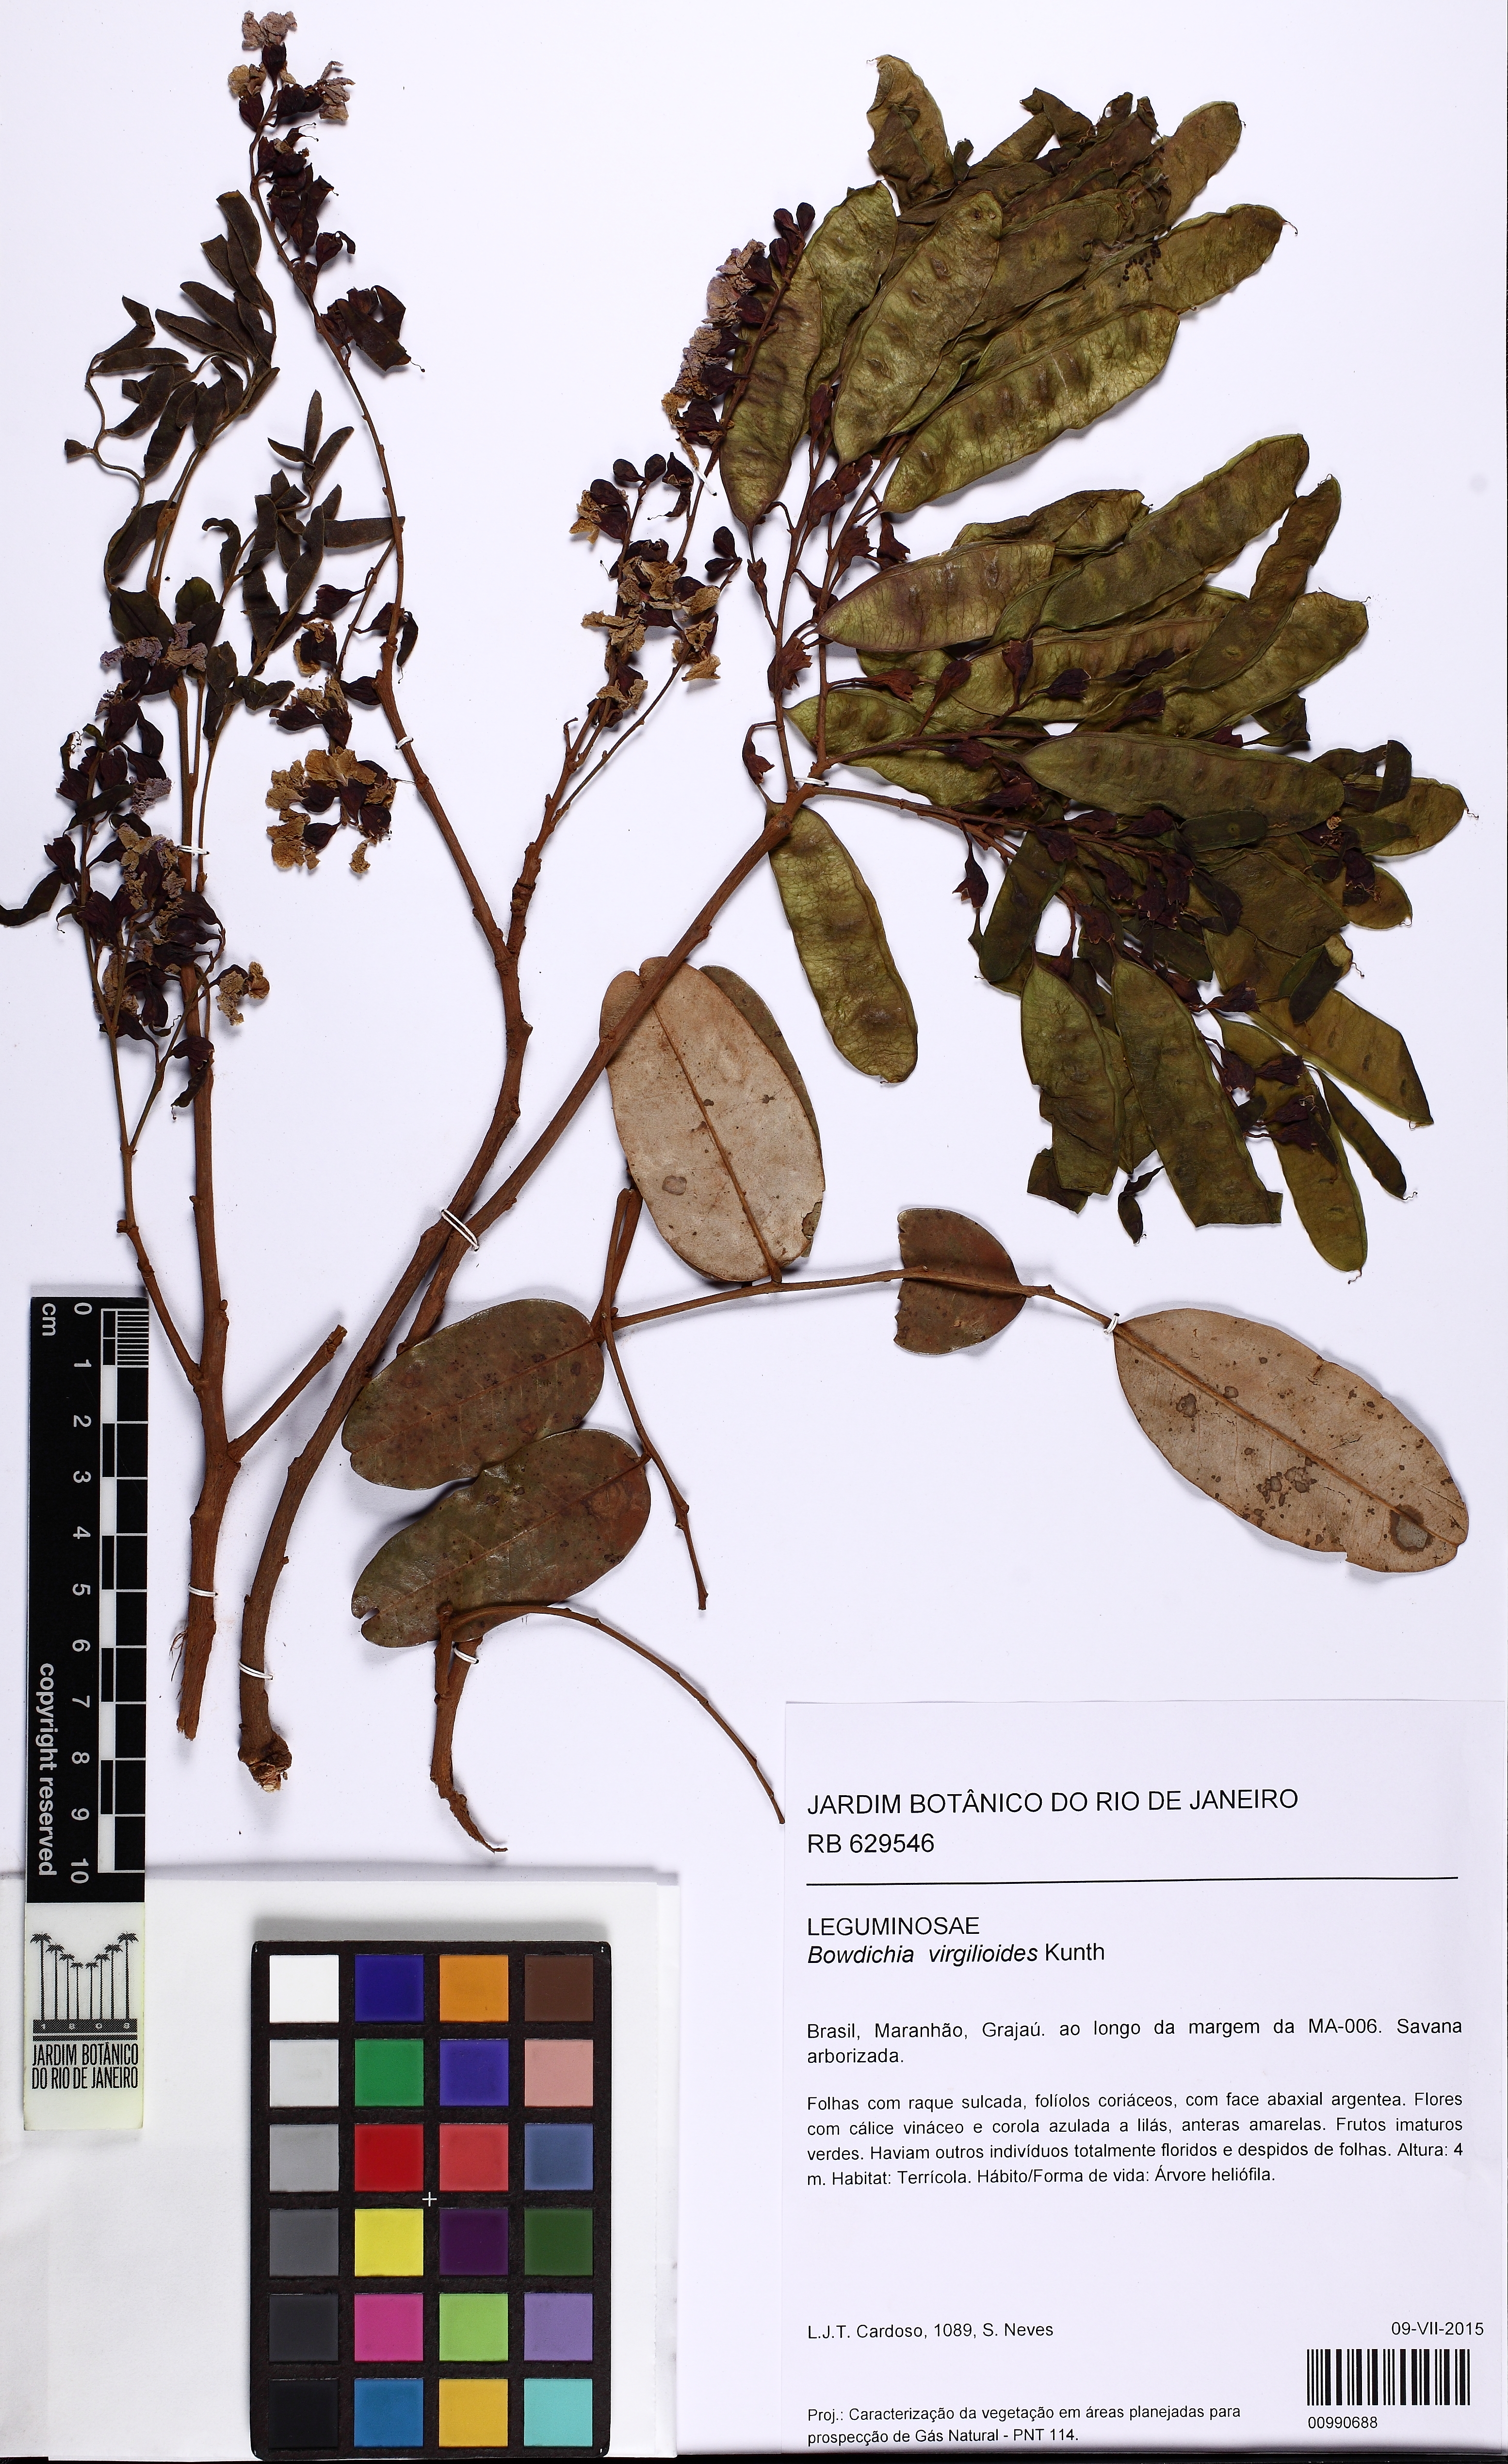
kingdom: Plantae
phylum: Tracheophyta
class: Magnoliopsida
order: Fabales
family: Fabaceae
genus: Bowdichia
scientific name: Bowdichia virgilioides
